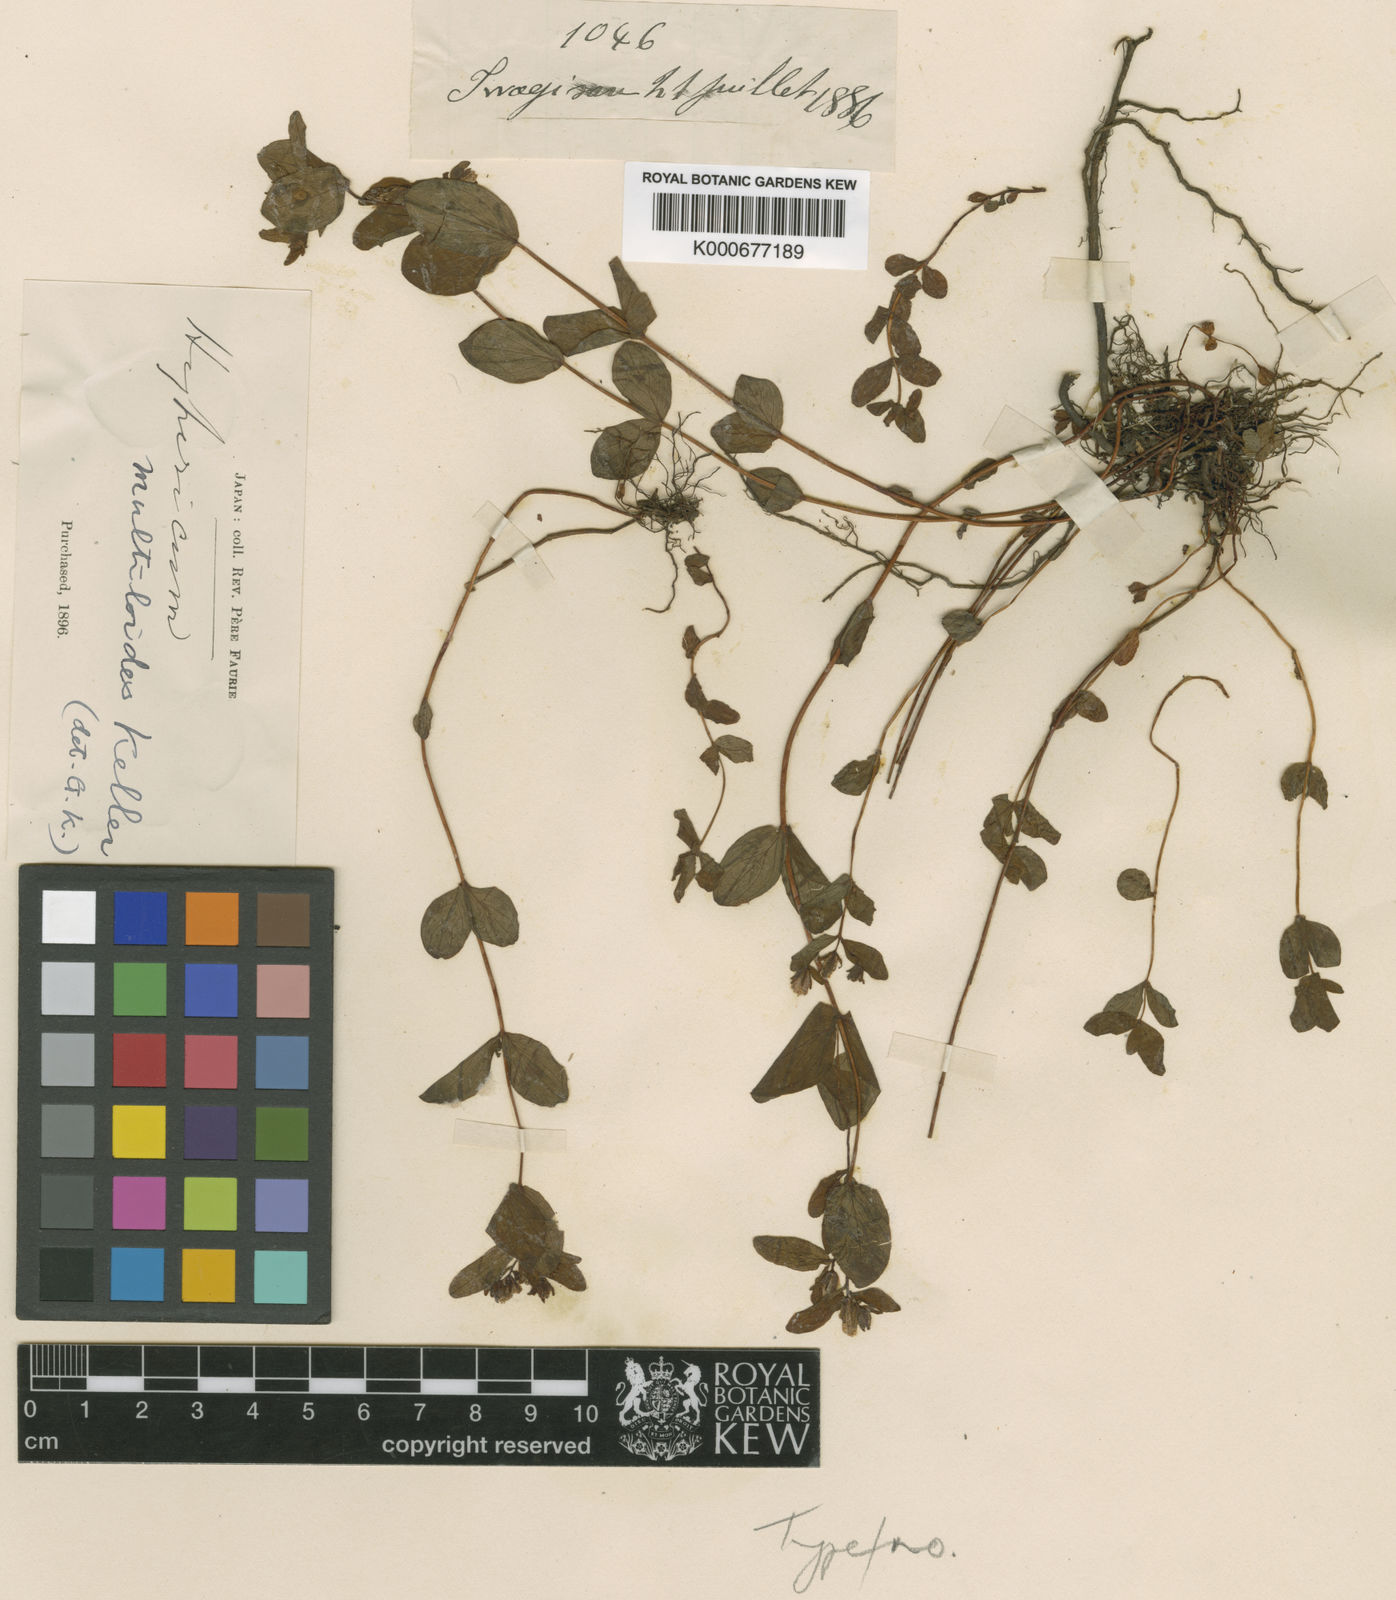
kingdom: Plantae
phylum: Tracheophyta
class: Magnoliopsida
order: Malpighiales
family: Hypericaceae
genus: Hypericum
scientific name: Hypericum senanense
